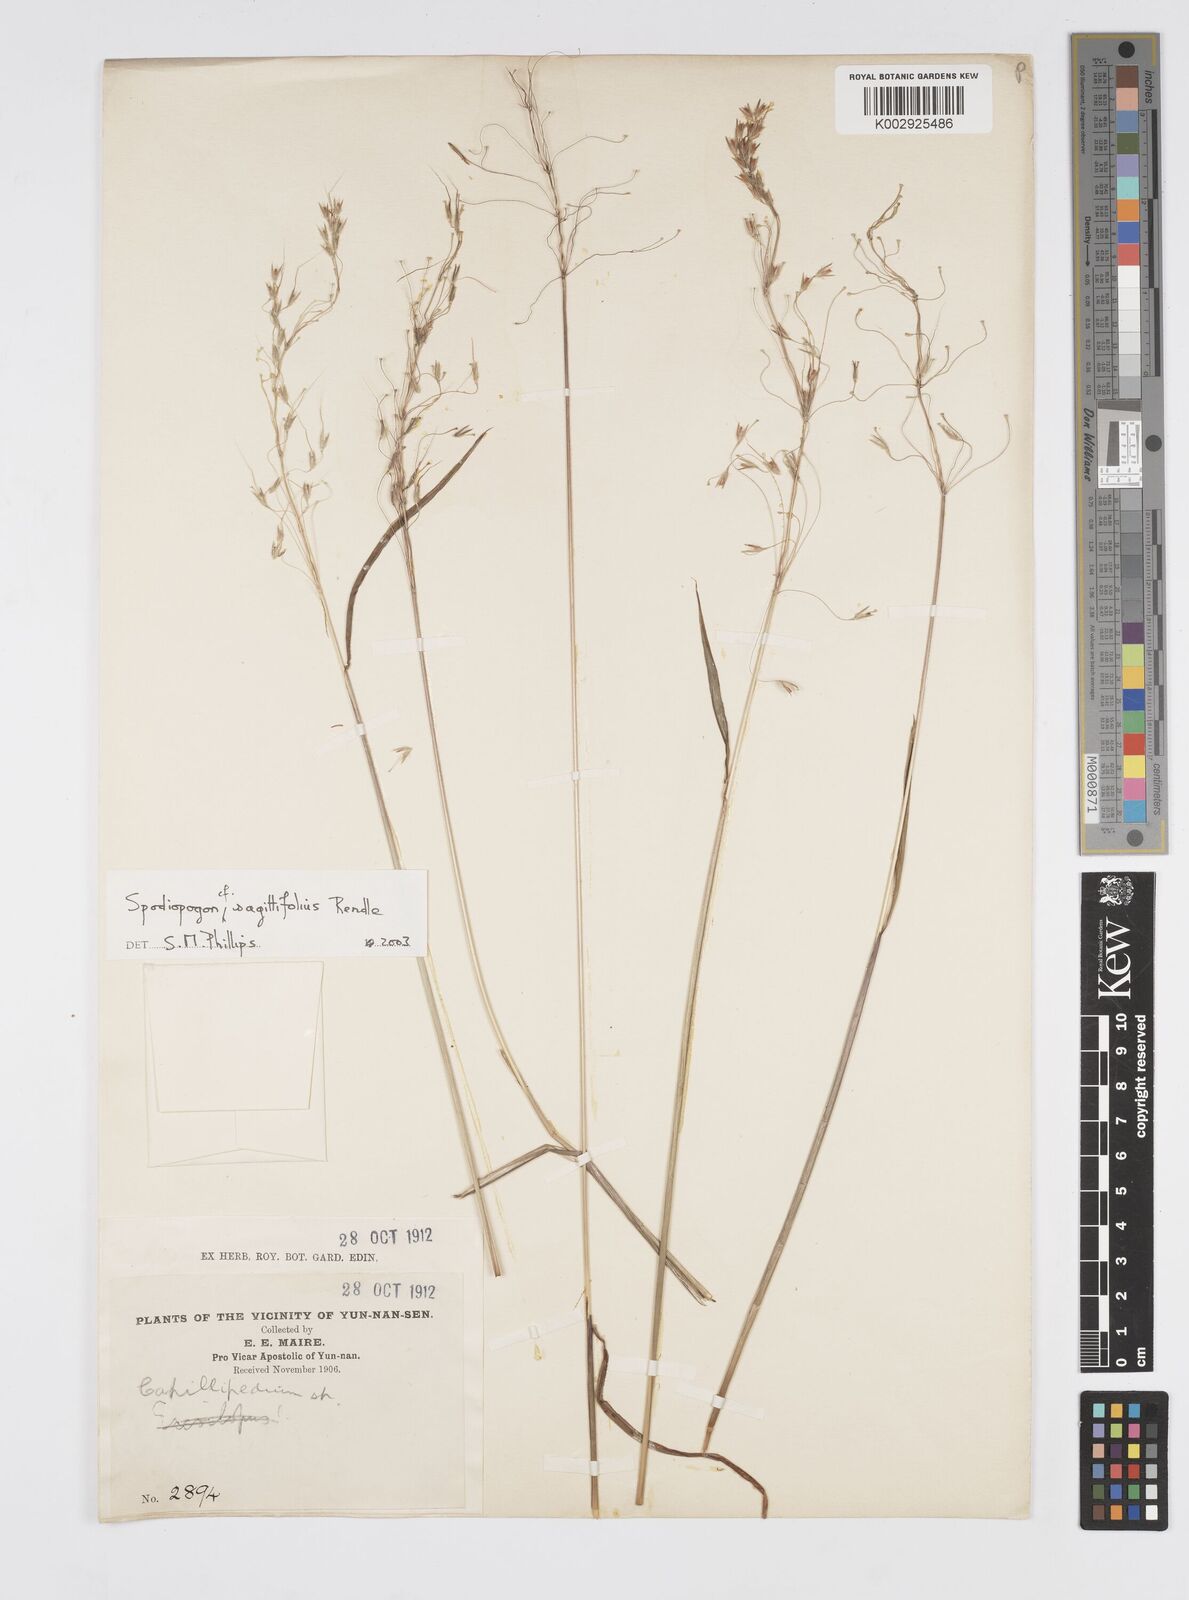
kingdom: Plantae
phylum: Tracheophyta
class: Liliopsida
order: Poales
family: Poaceae
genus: Spodiopogon
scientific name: Spodiopogon sagittifolius
